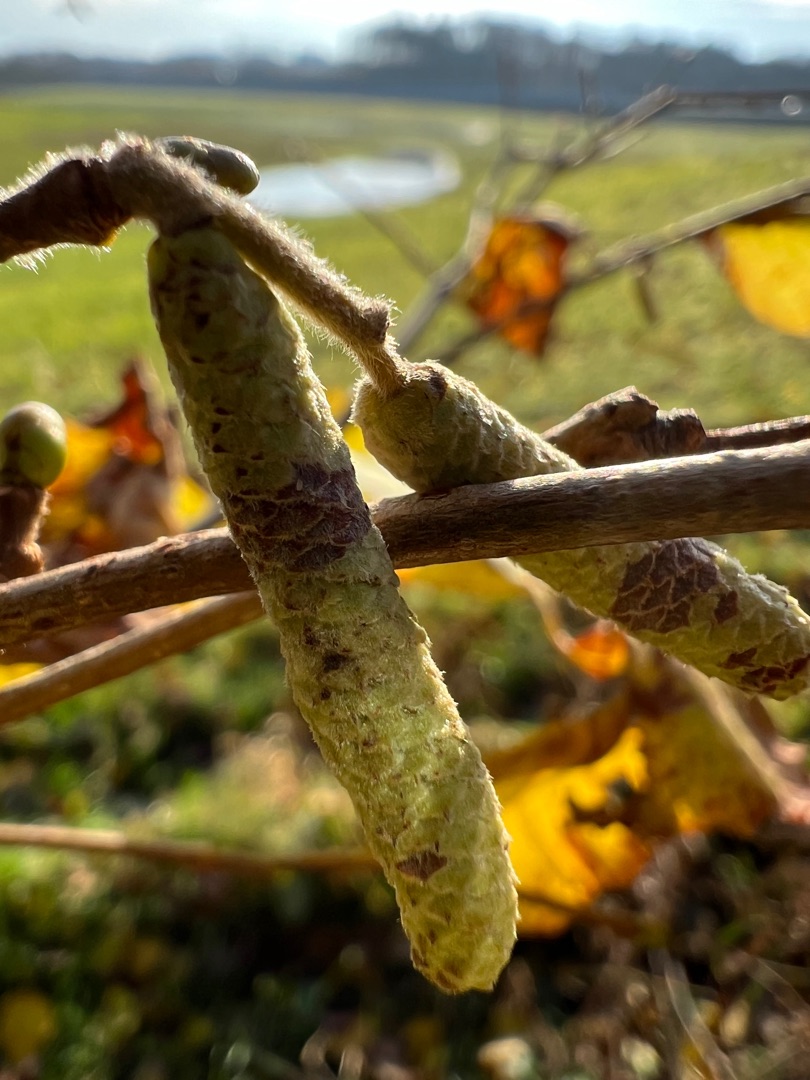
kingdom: Plantae
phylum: Tracheophyta
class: Magnoliopsida
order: Fagales
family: Betulaceae
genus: Corylus
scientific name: Corylus avellana
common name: Hassel
